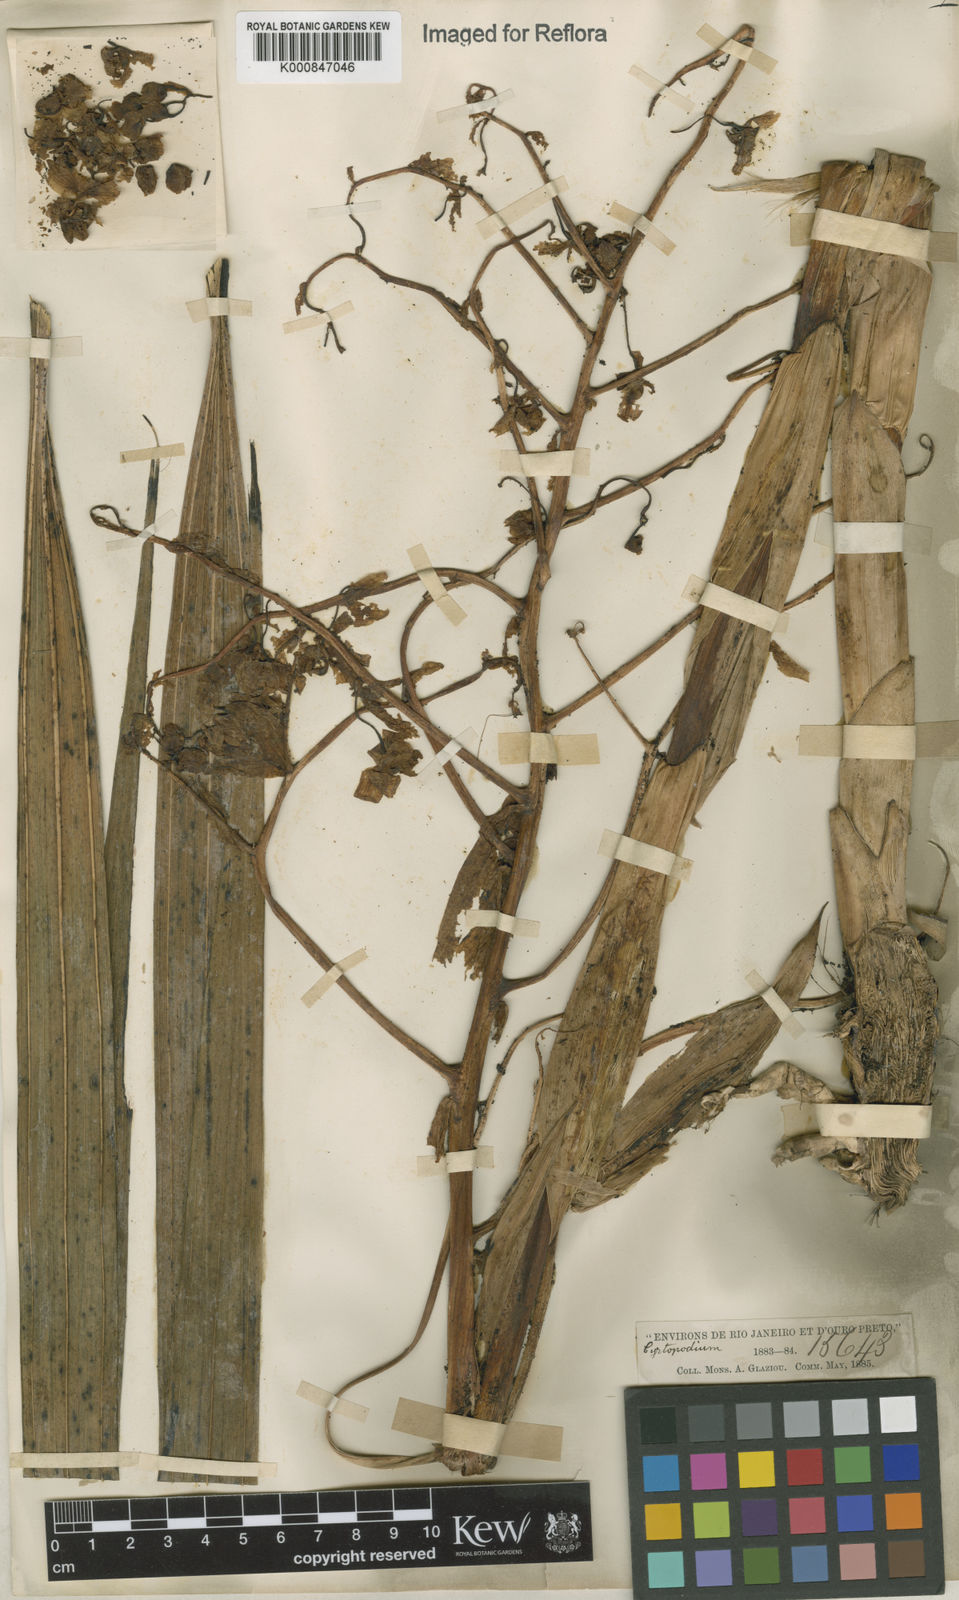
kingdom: Plantae
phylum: Tracheophyta
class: Liliopsida
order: Asparagales
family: Orchidaceae
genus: Cyrtopodium
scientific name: Cyrtopodium punctatum
